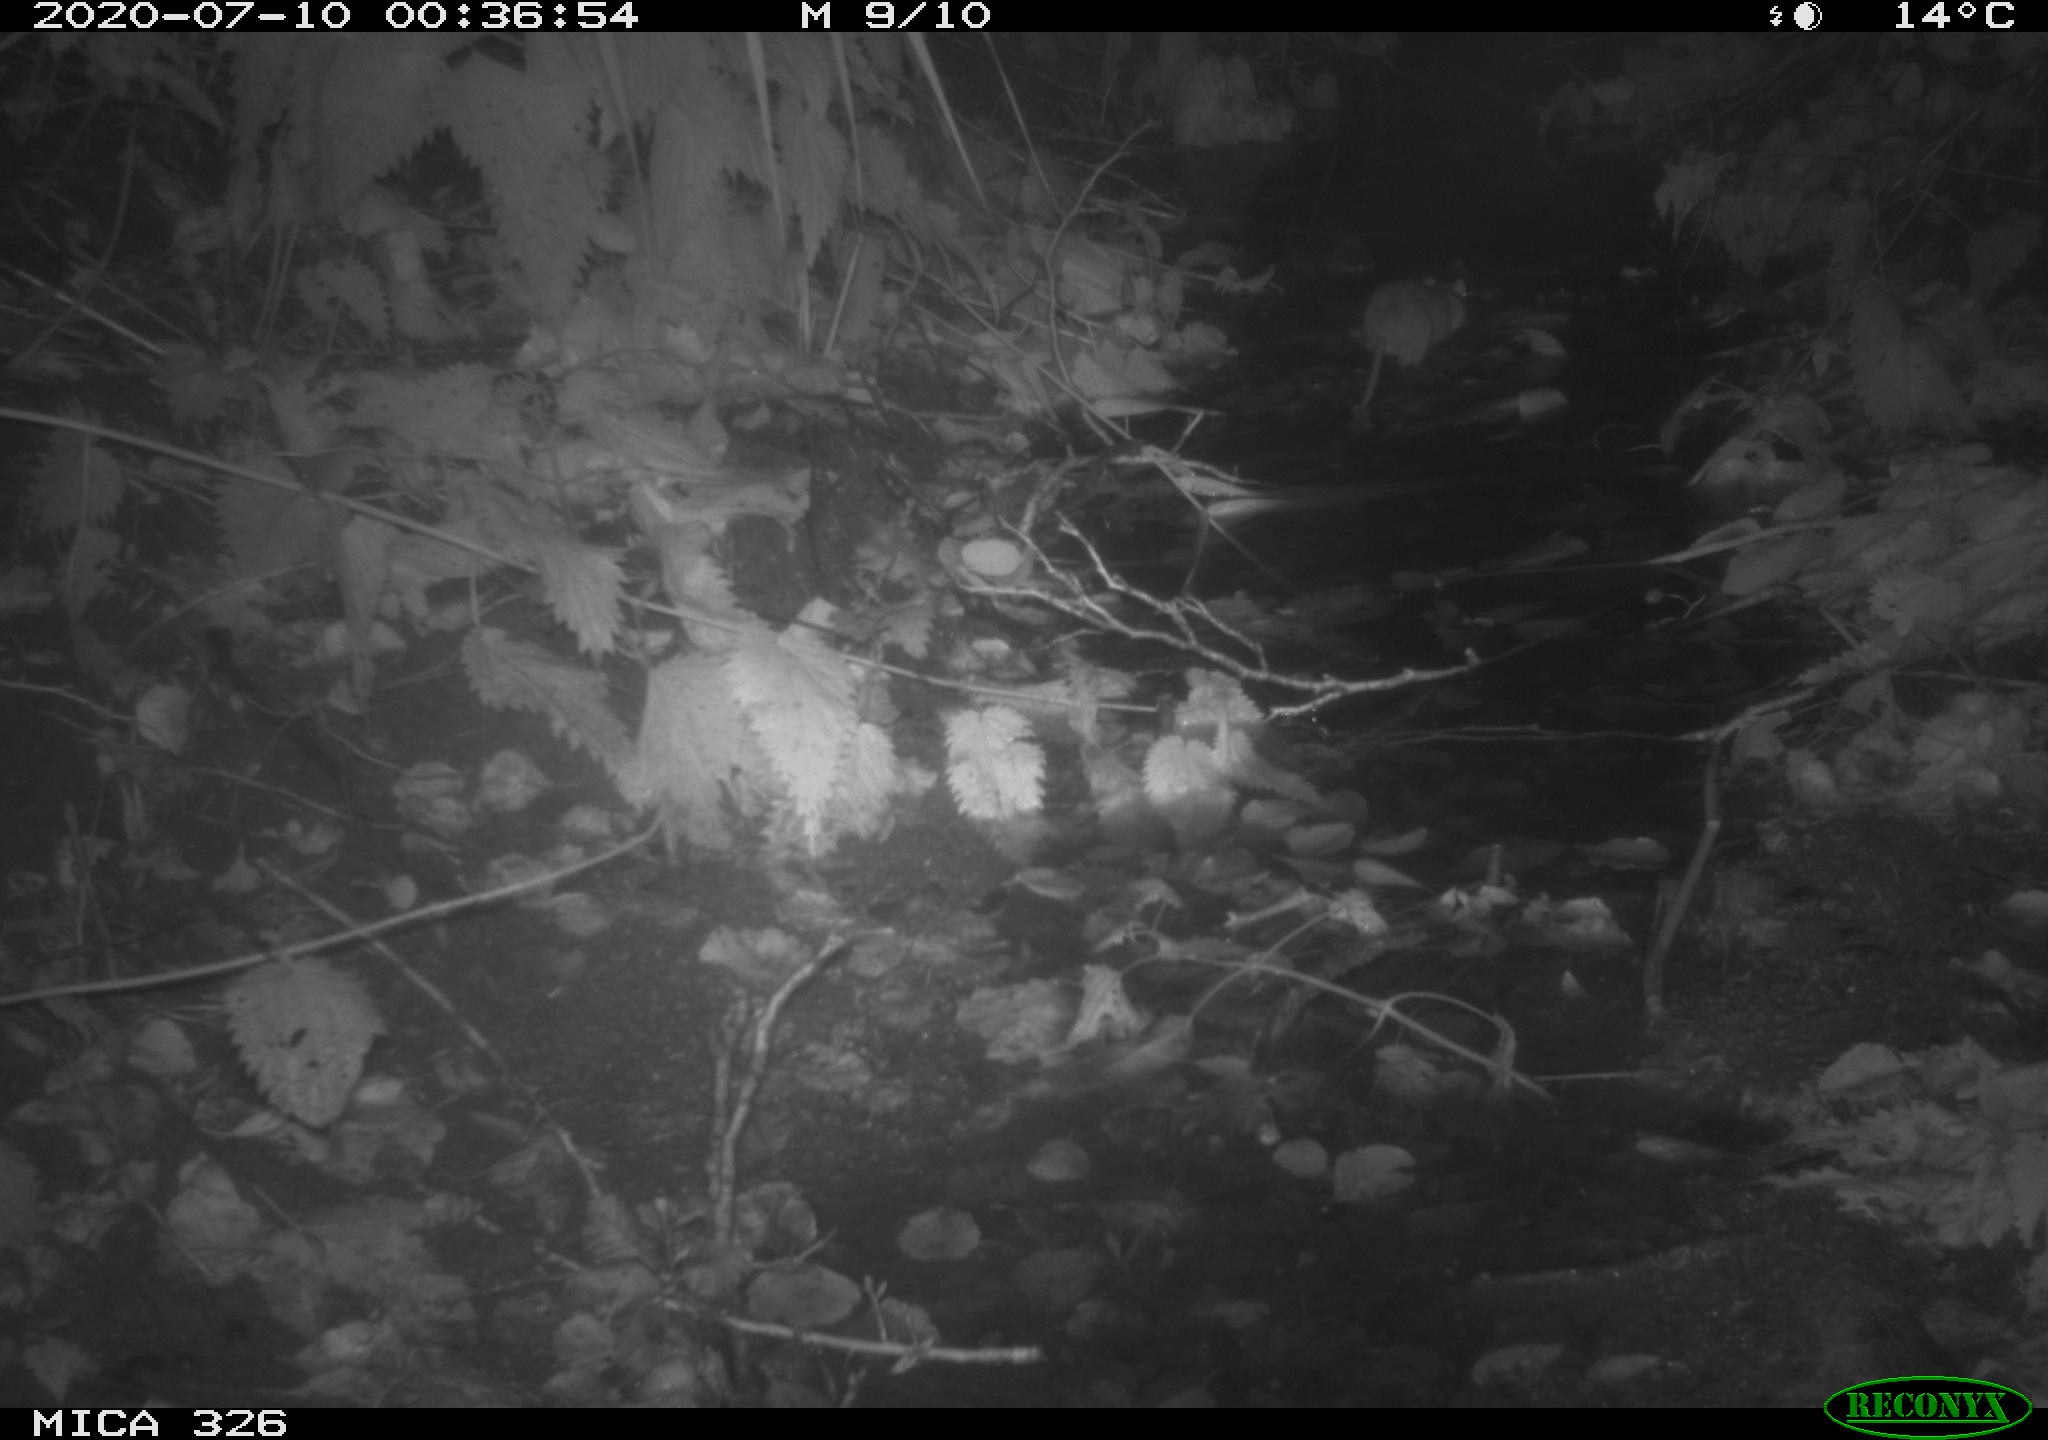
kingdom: Animalia
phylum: Chordata
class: Mammalia
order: Rodentia
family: Muridae
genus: Rattus
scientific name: Rattus norvegicus
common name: Brown rat
